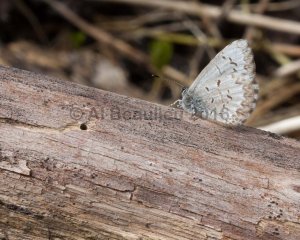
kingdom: Animalia
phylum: Arthropoda
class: Insecta
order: Lepidoptera
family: Lycaenidae
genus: Celastrina
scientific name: Celastrina lucia
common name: Northern Spring Azure
